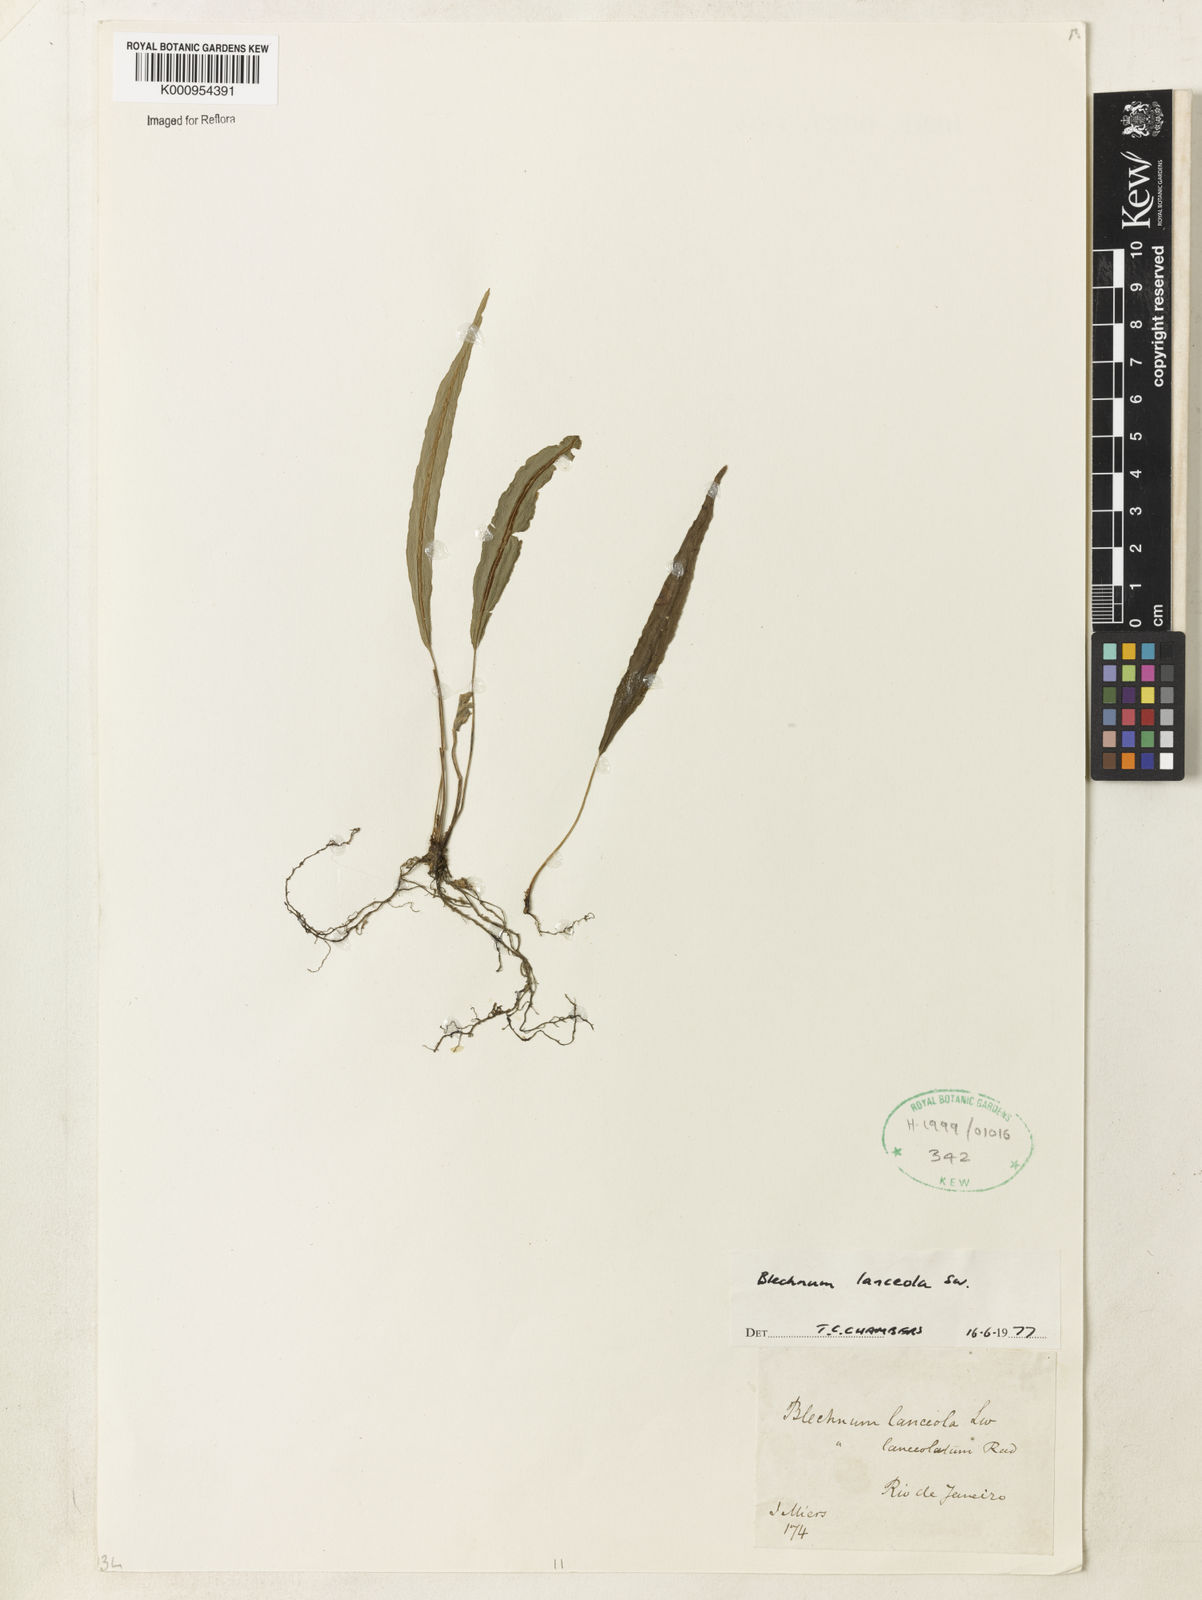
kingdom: Plantae
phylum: Tracheophyta
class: Polypodiopsida
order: Polypodiales
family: Blechnaceae
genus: Blechnum
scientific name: Blechnum lanceola
